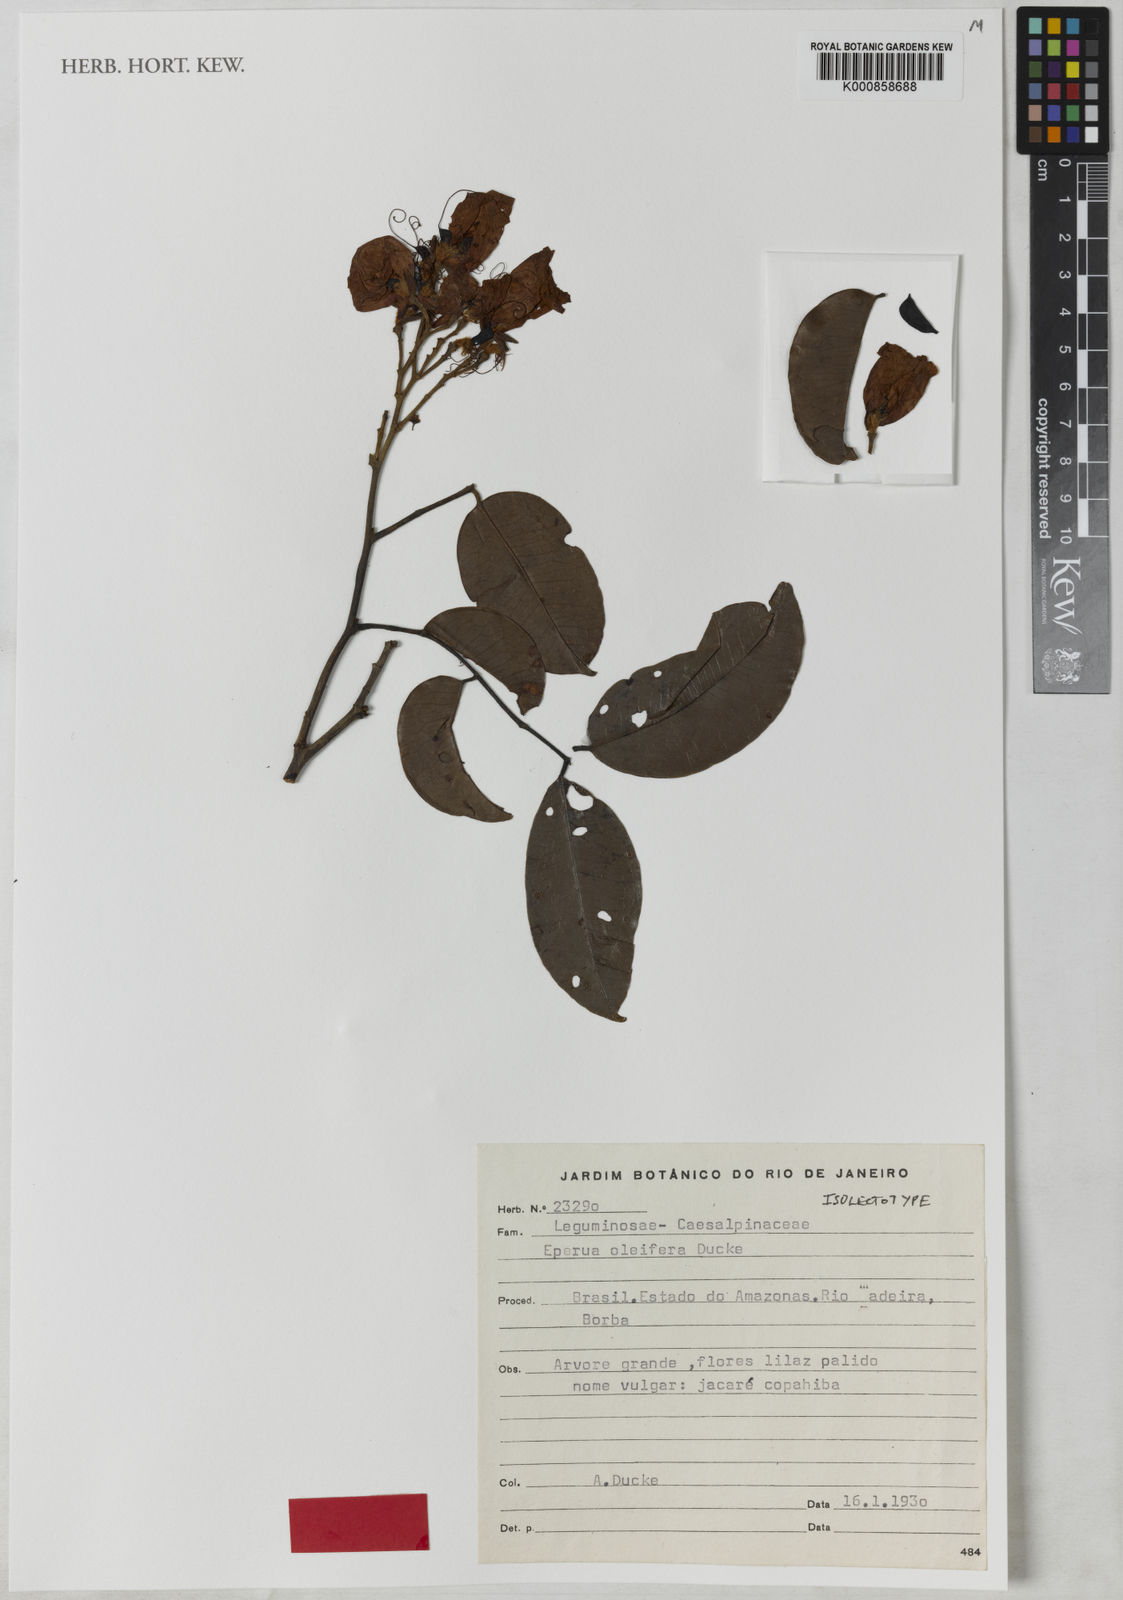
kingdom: Plantae
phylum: Tracheophyta
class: Magnoliopsida
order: Fabales
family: Fabaceae
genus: Eperua
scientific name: Eperua oleifera
